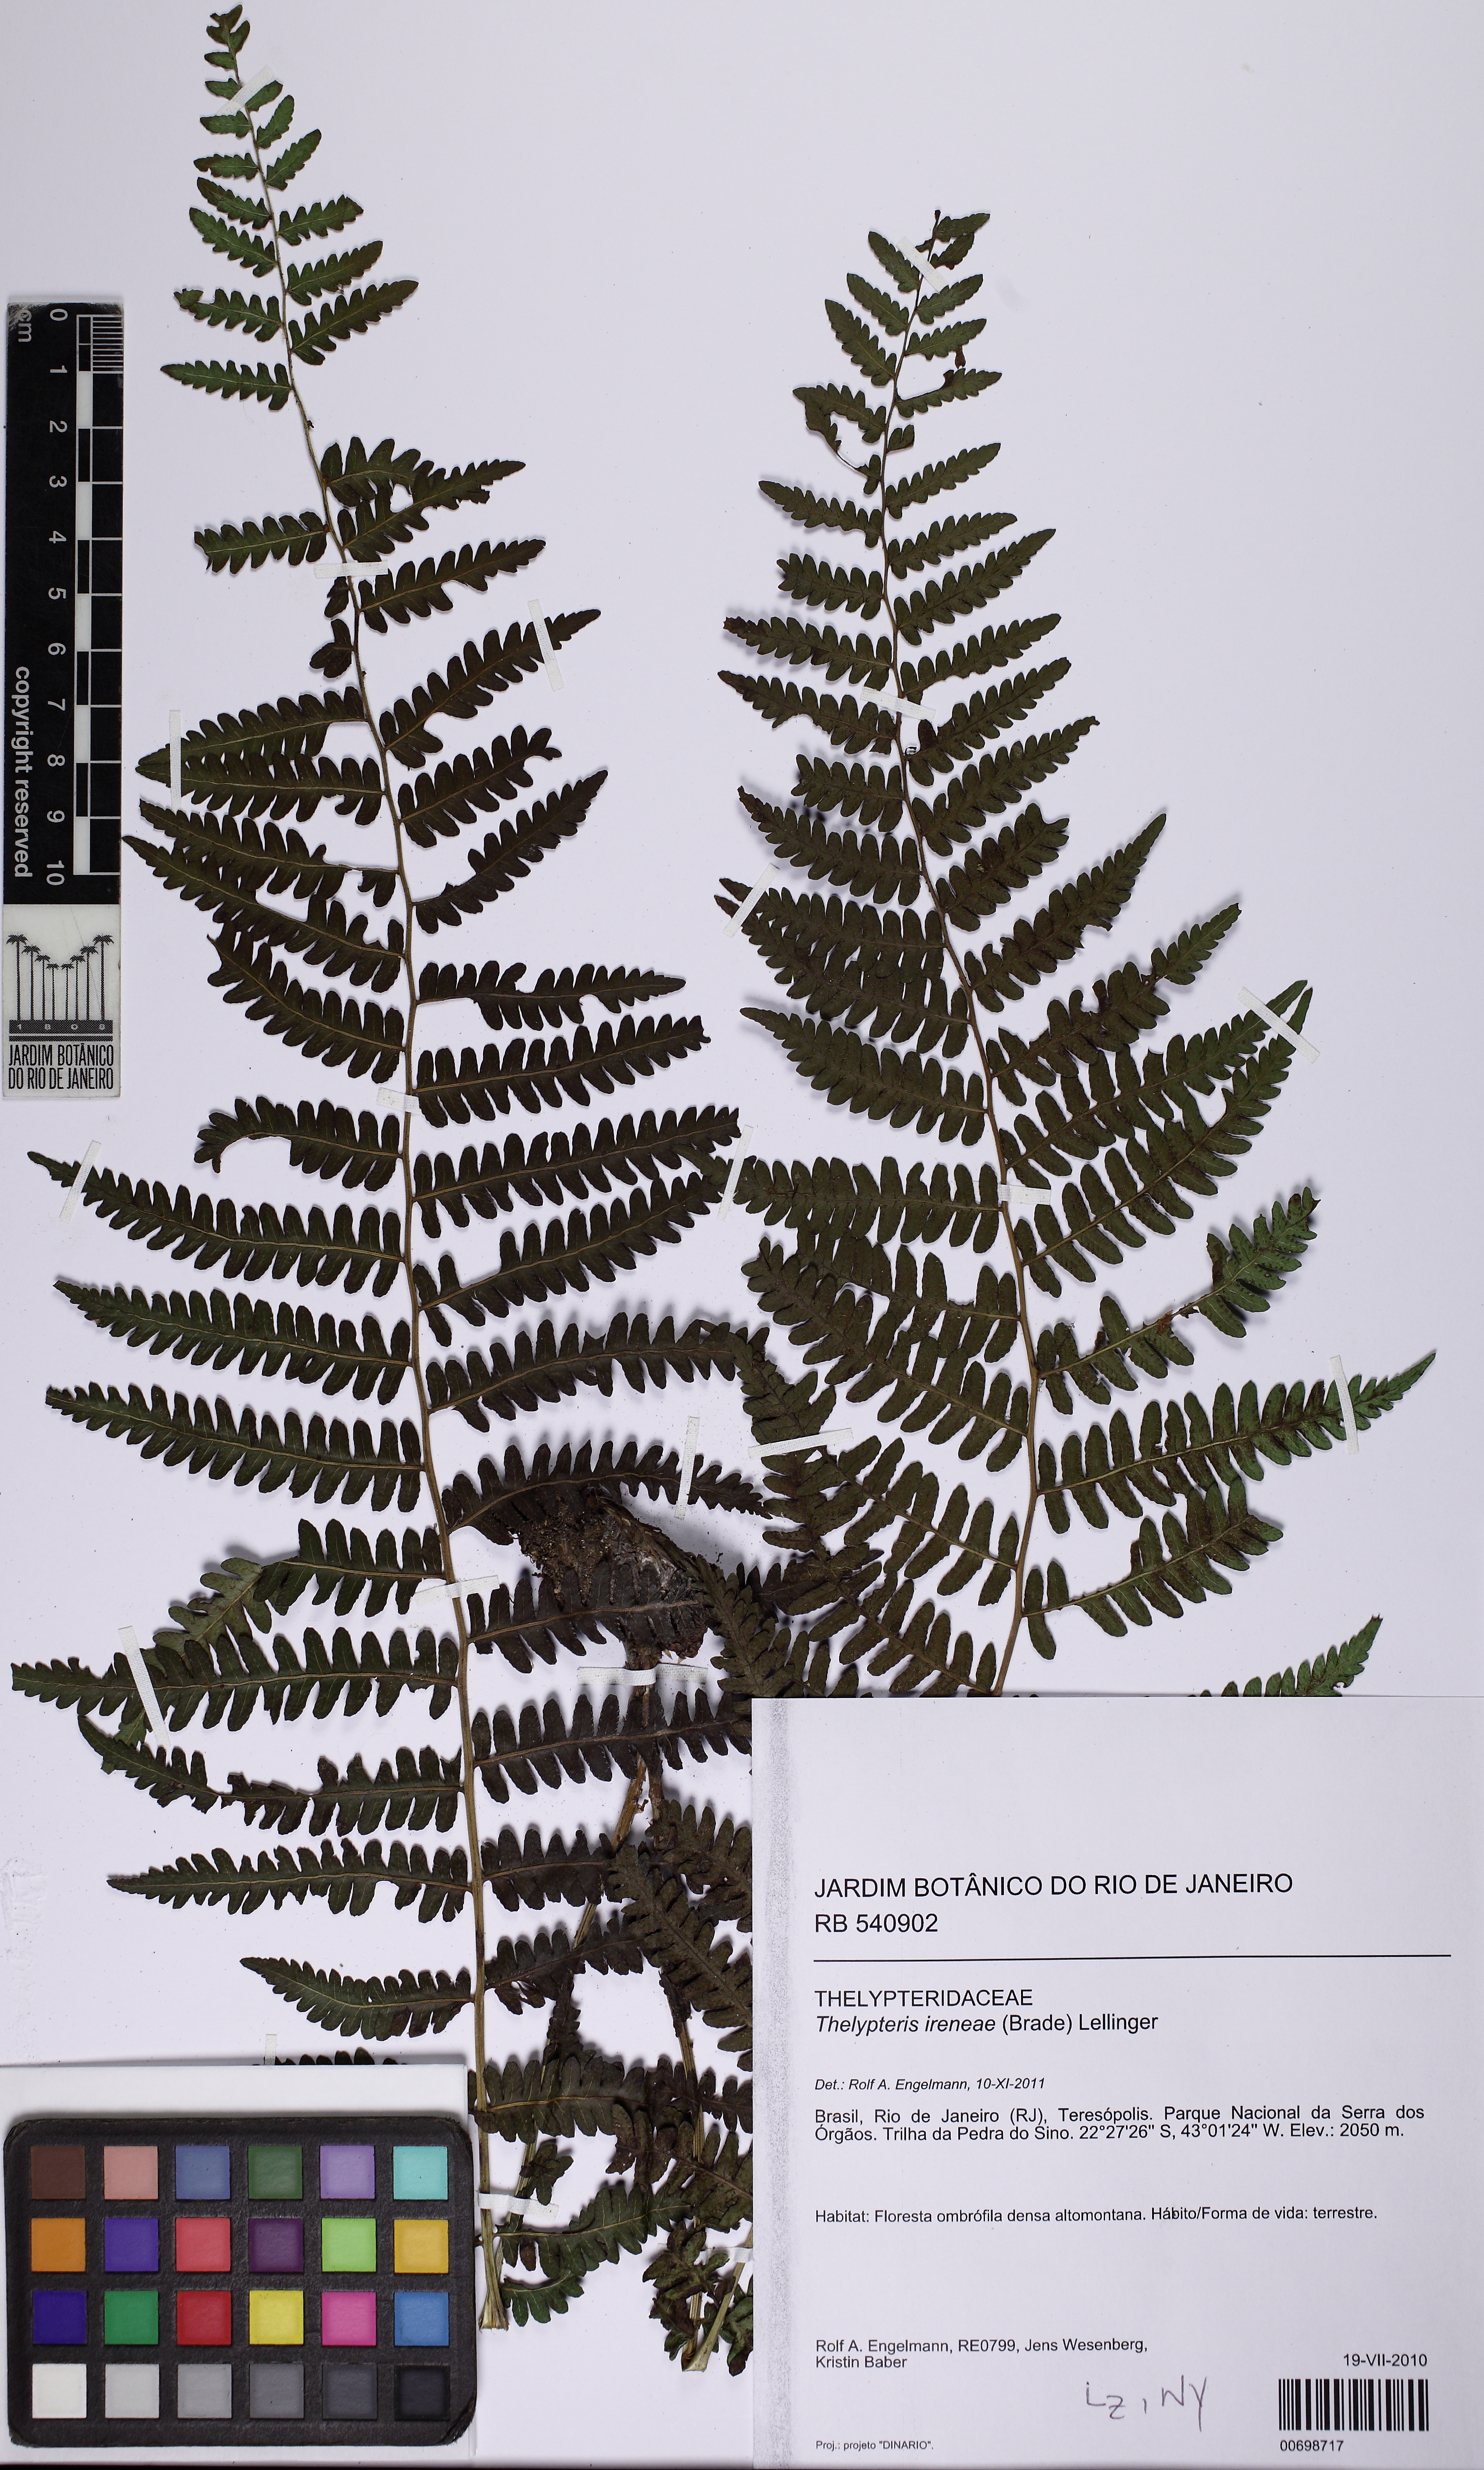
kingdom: Plantae
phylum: Tracheophyta
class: Polypodiopsida
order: Polypodiales
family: Thelypteridaceae
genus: Amauropelta
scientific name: Amauropelta ireneae
